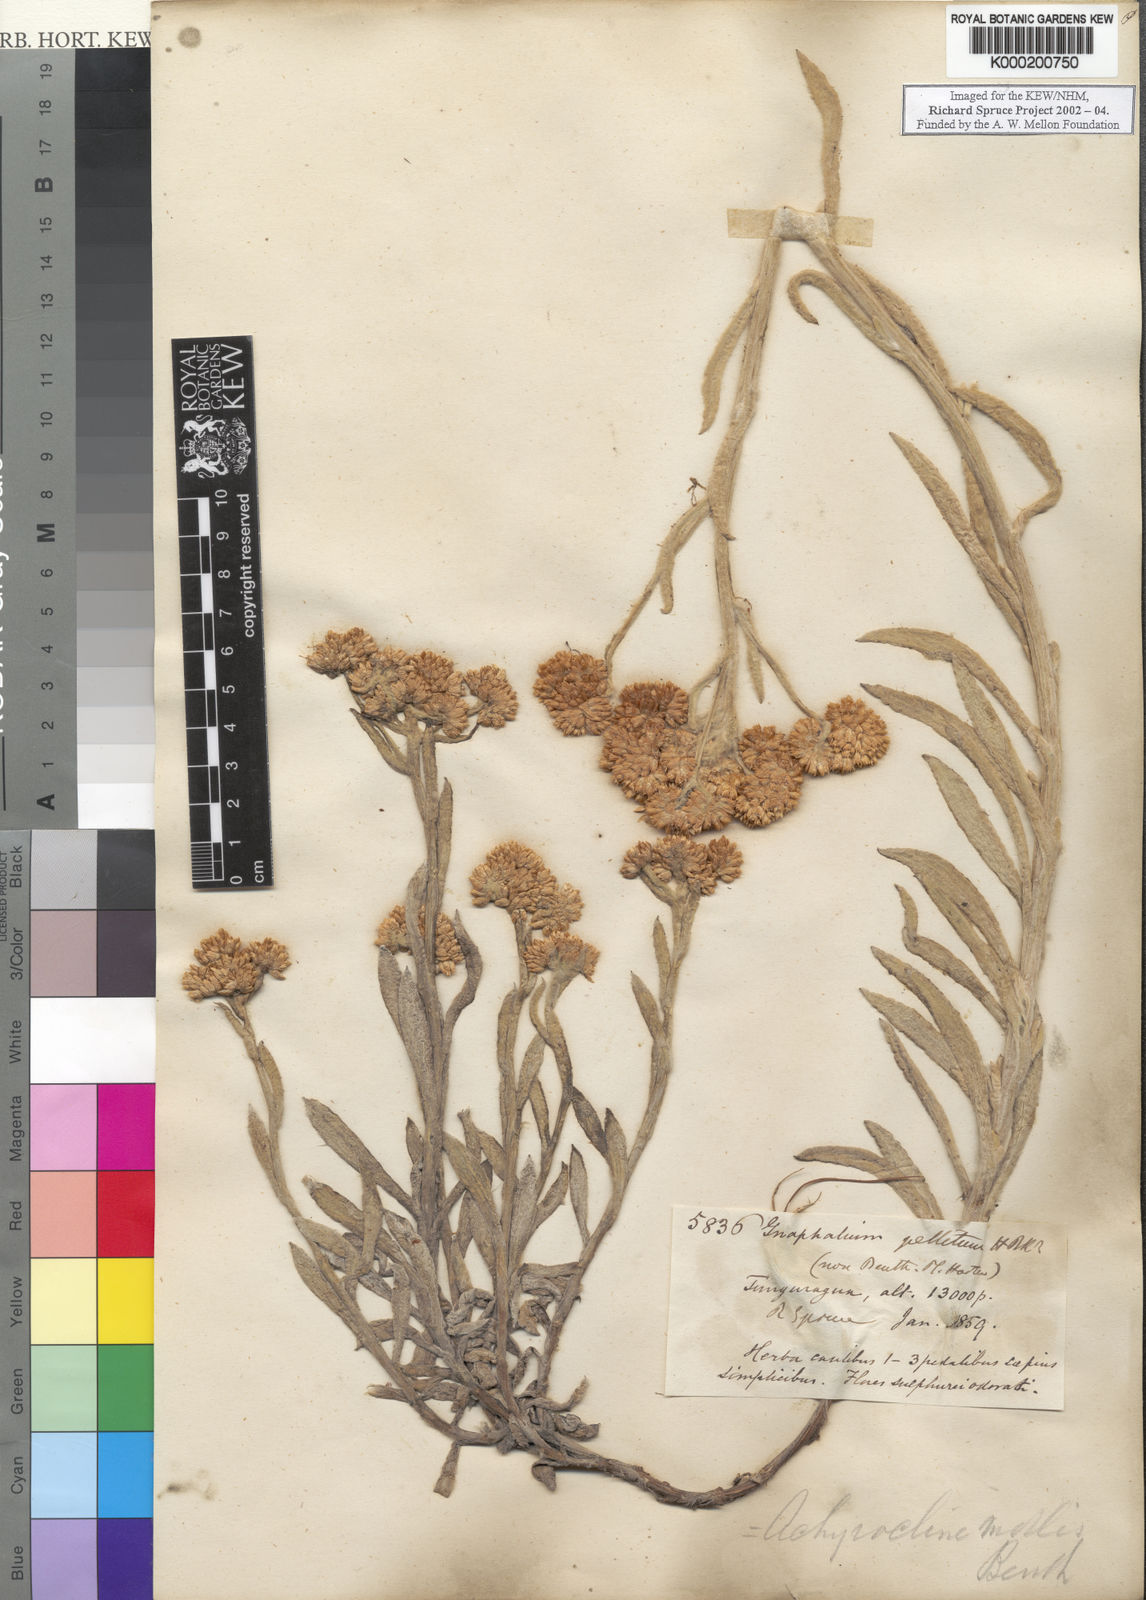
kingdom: Plantae
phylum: Tracheophyta
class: Magnoliopsida
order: Asterales
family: Asteraceae
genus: Pseudognaphalium
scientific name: Pseudognaphalium cheiranthifolium
